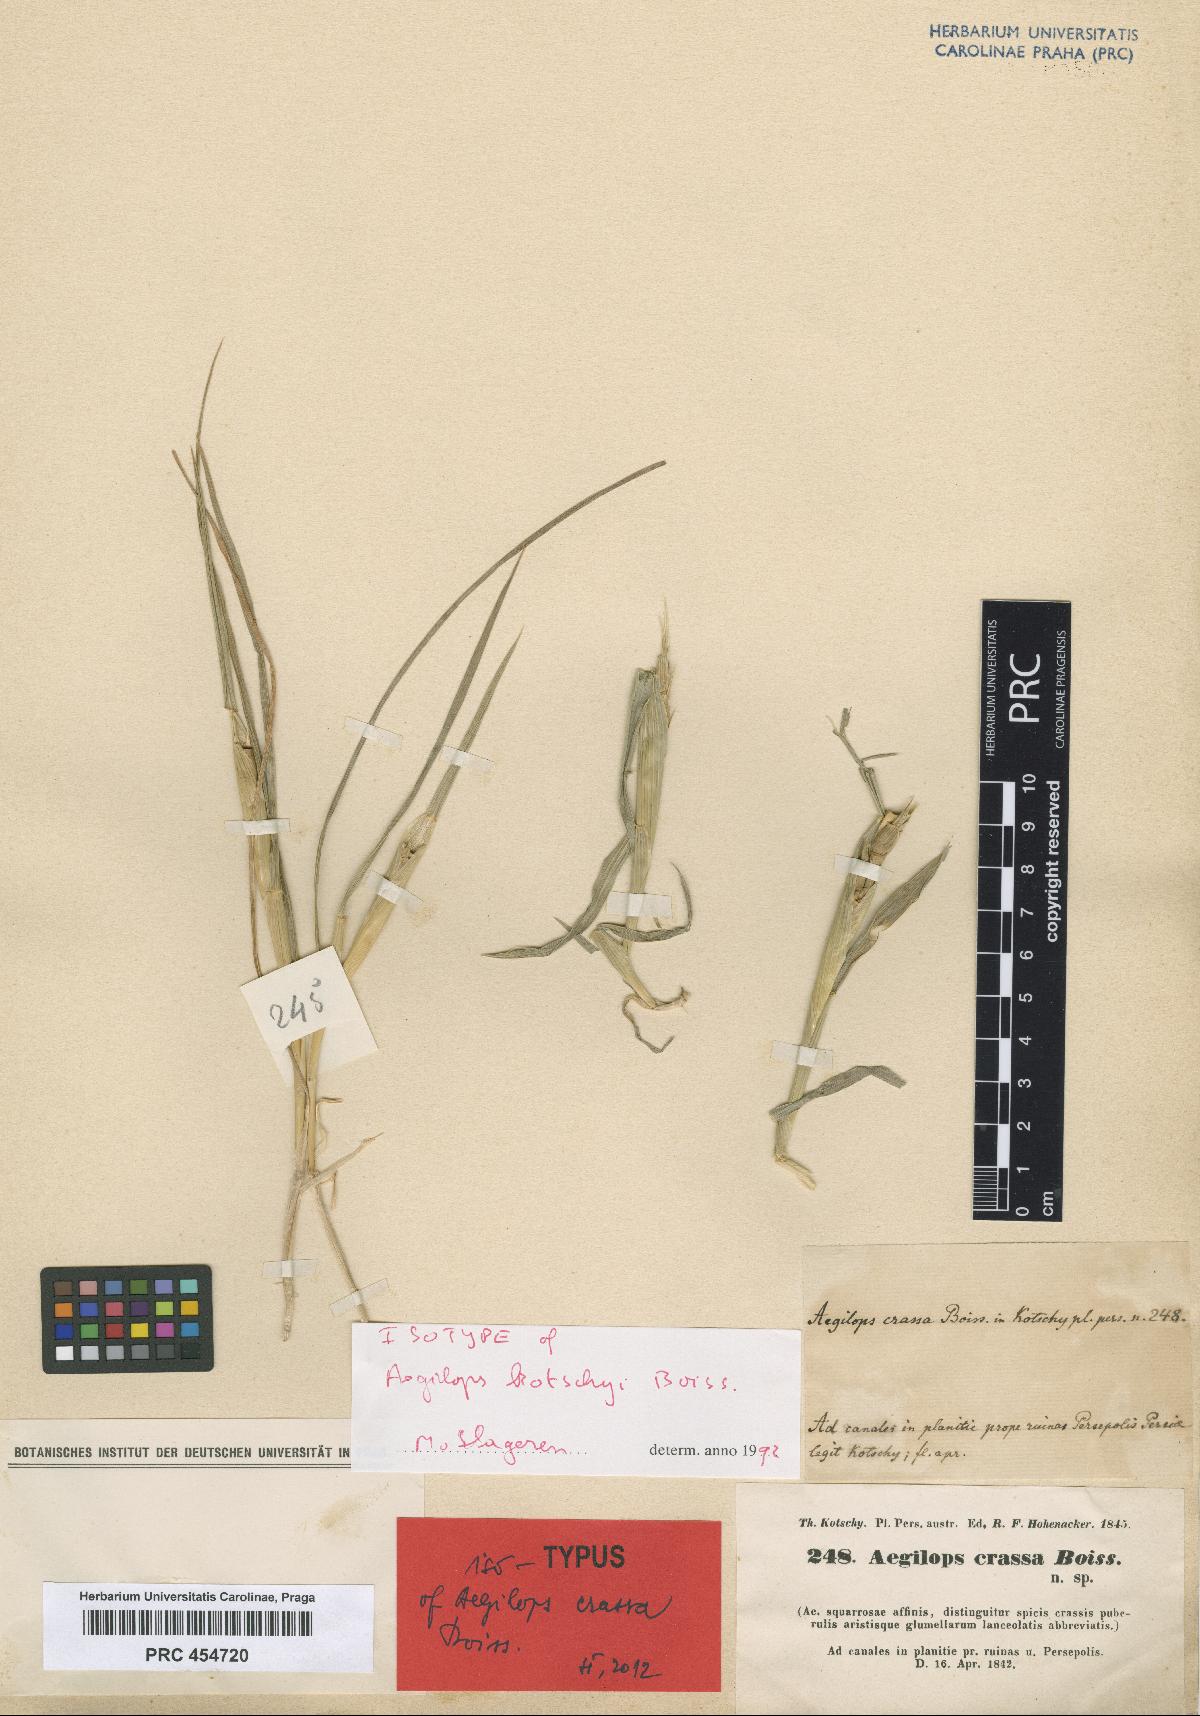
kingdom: Plantae
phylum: Tracheophyta
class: Liliopsida
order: Poales
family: Poaceae
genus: Aegilops
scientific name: Aegilops crassa
